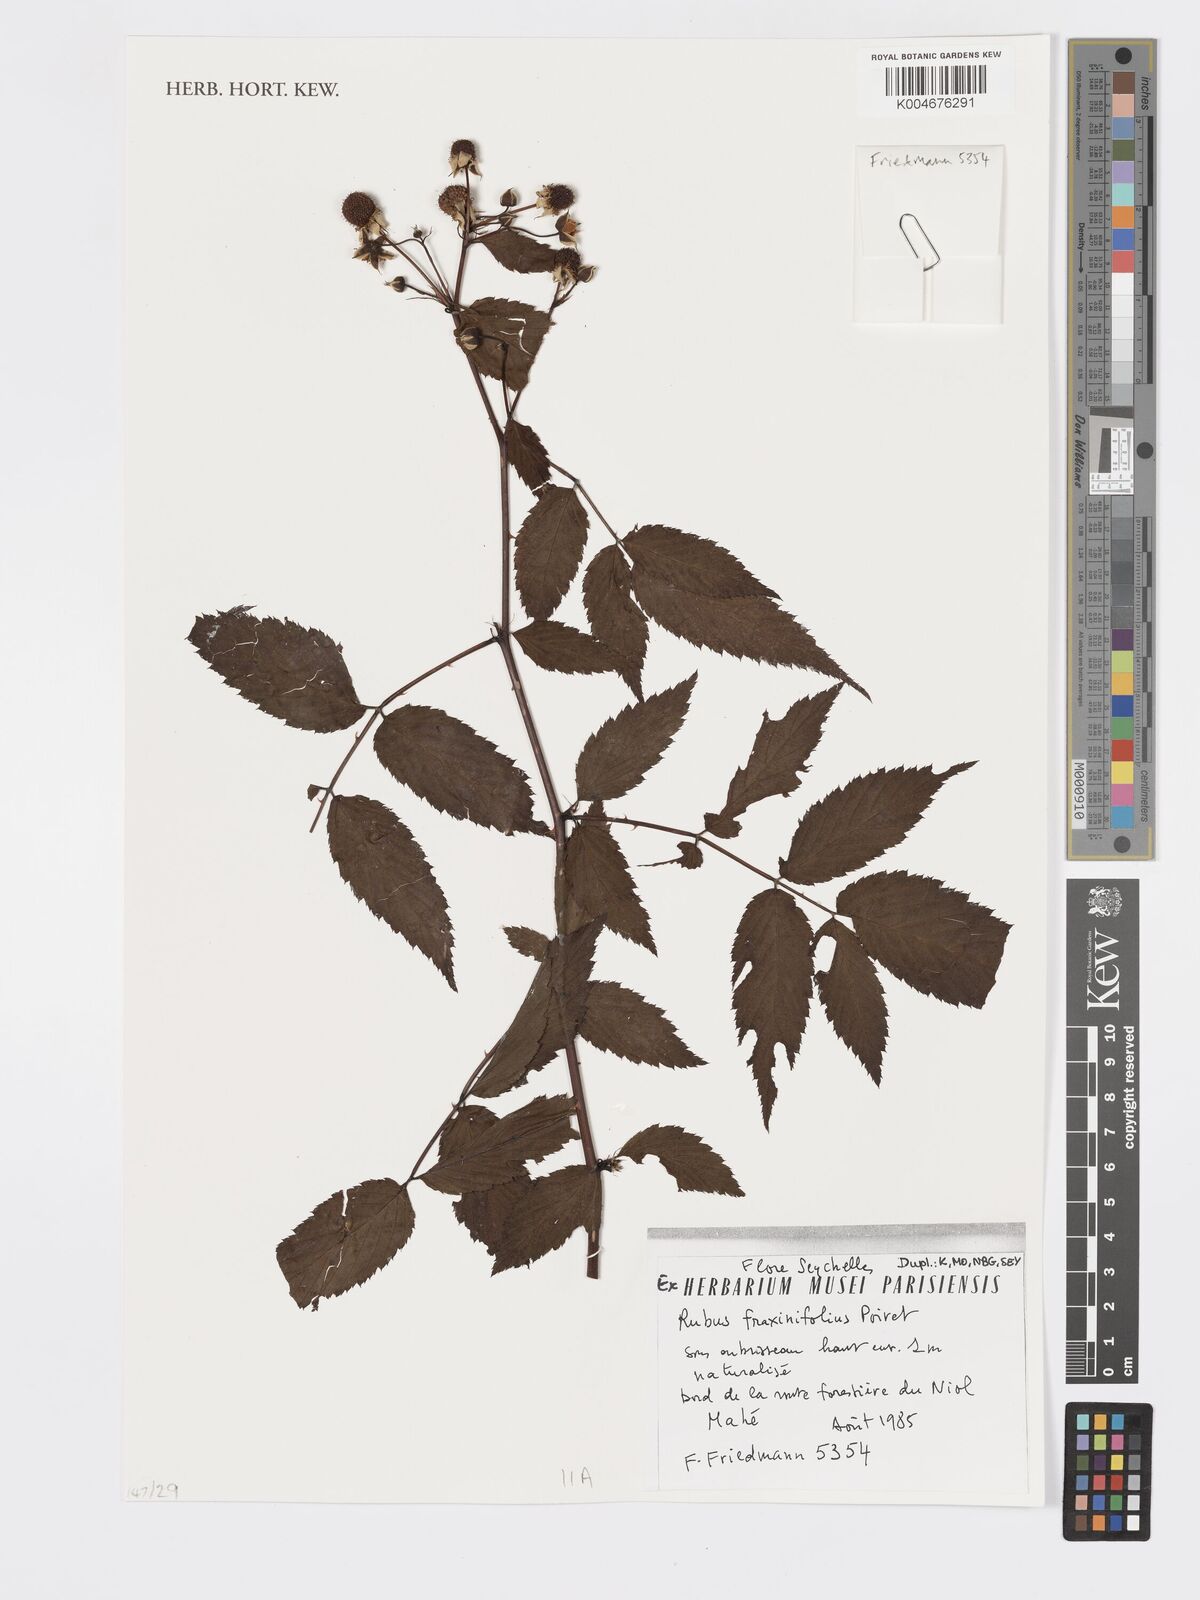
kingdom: Plantae
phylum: Tracheophyta
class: Magnoliopsida
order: Rosales
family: Rosaceae
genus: Rubus
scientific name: Rubus fraxinifolius
